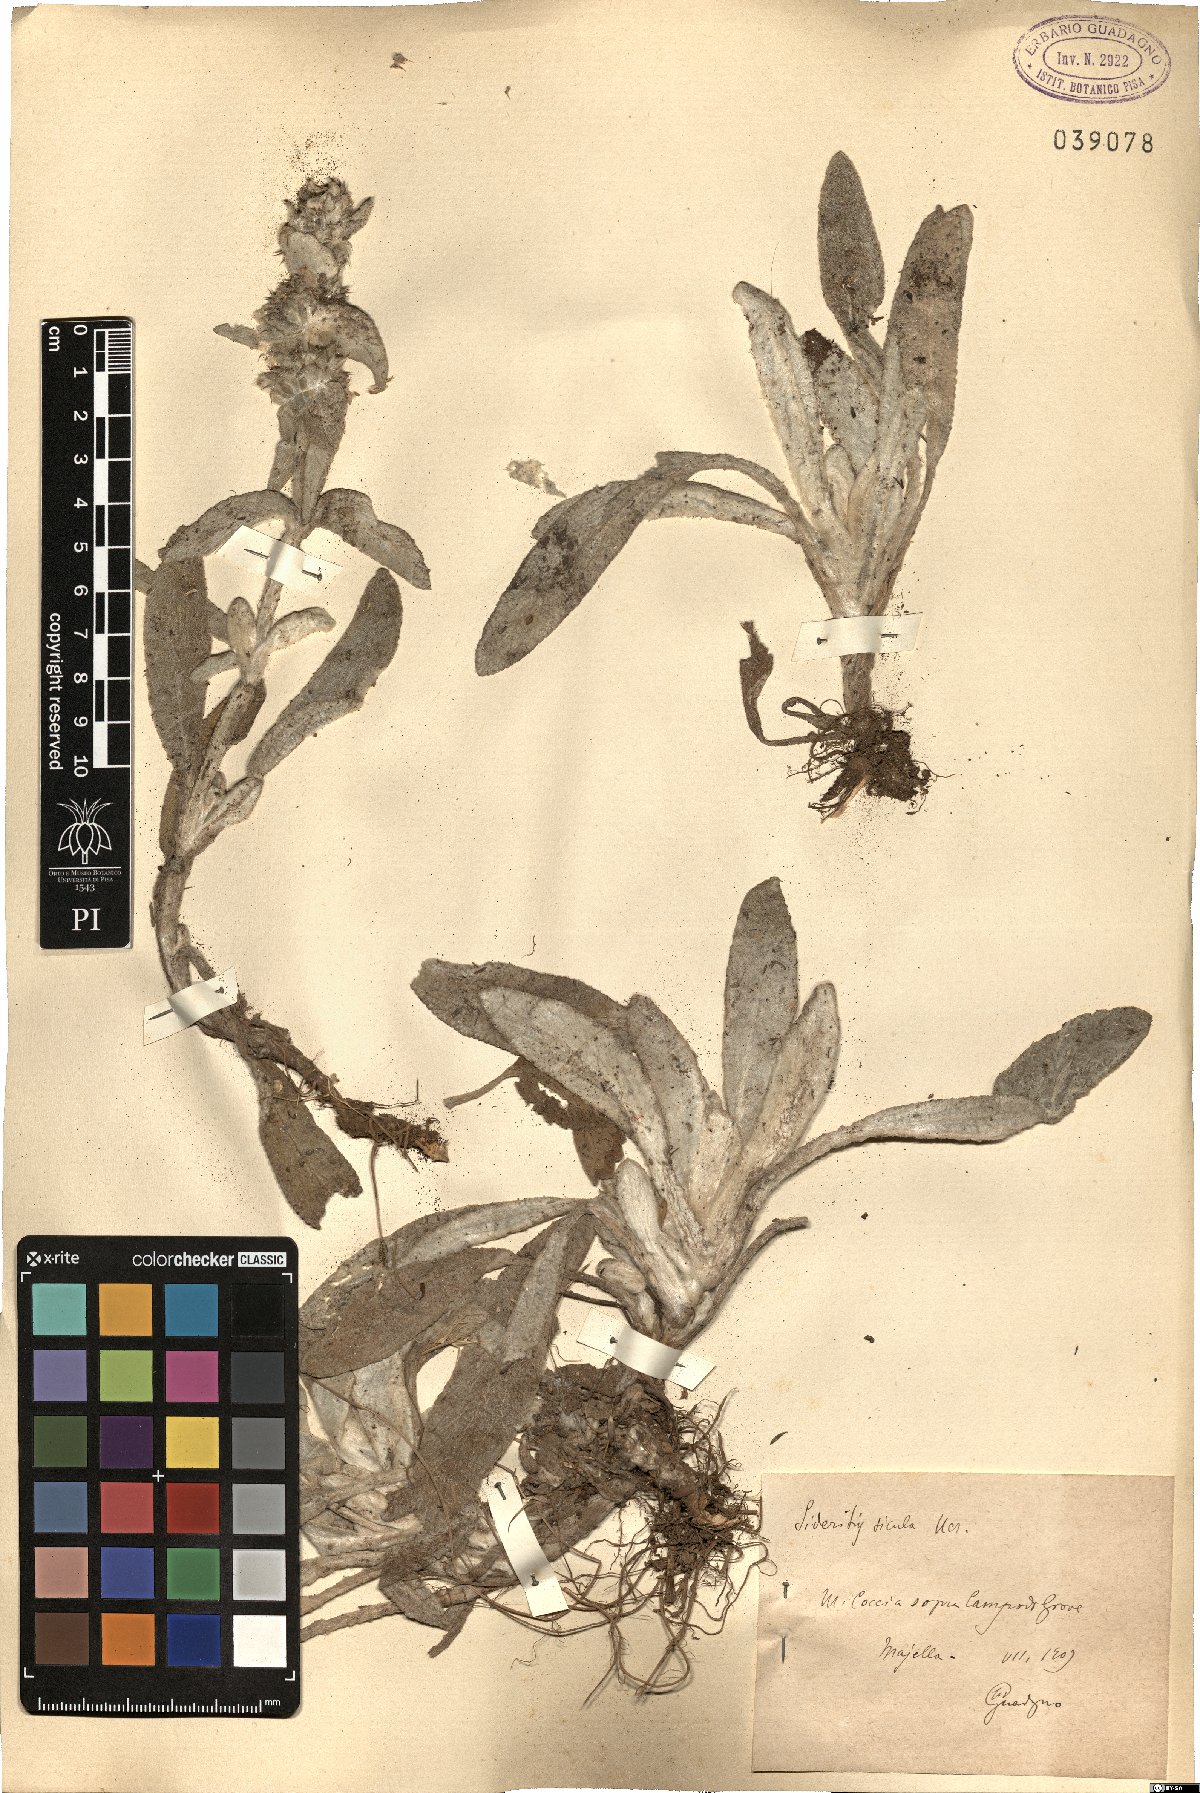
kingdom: Plantae
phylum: Tracheophyta
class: Magnoliopsida
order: Lamiales
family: Lamiaceae
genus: Sideritis
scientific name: Sideritis italica
